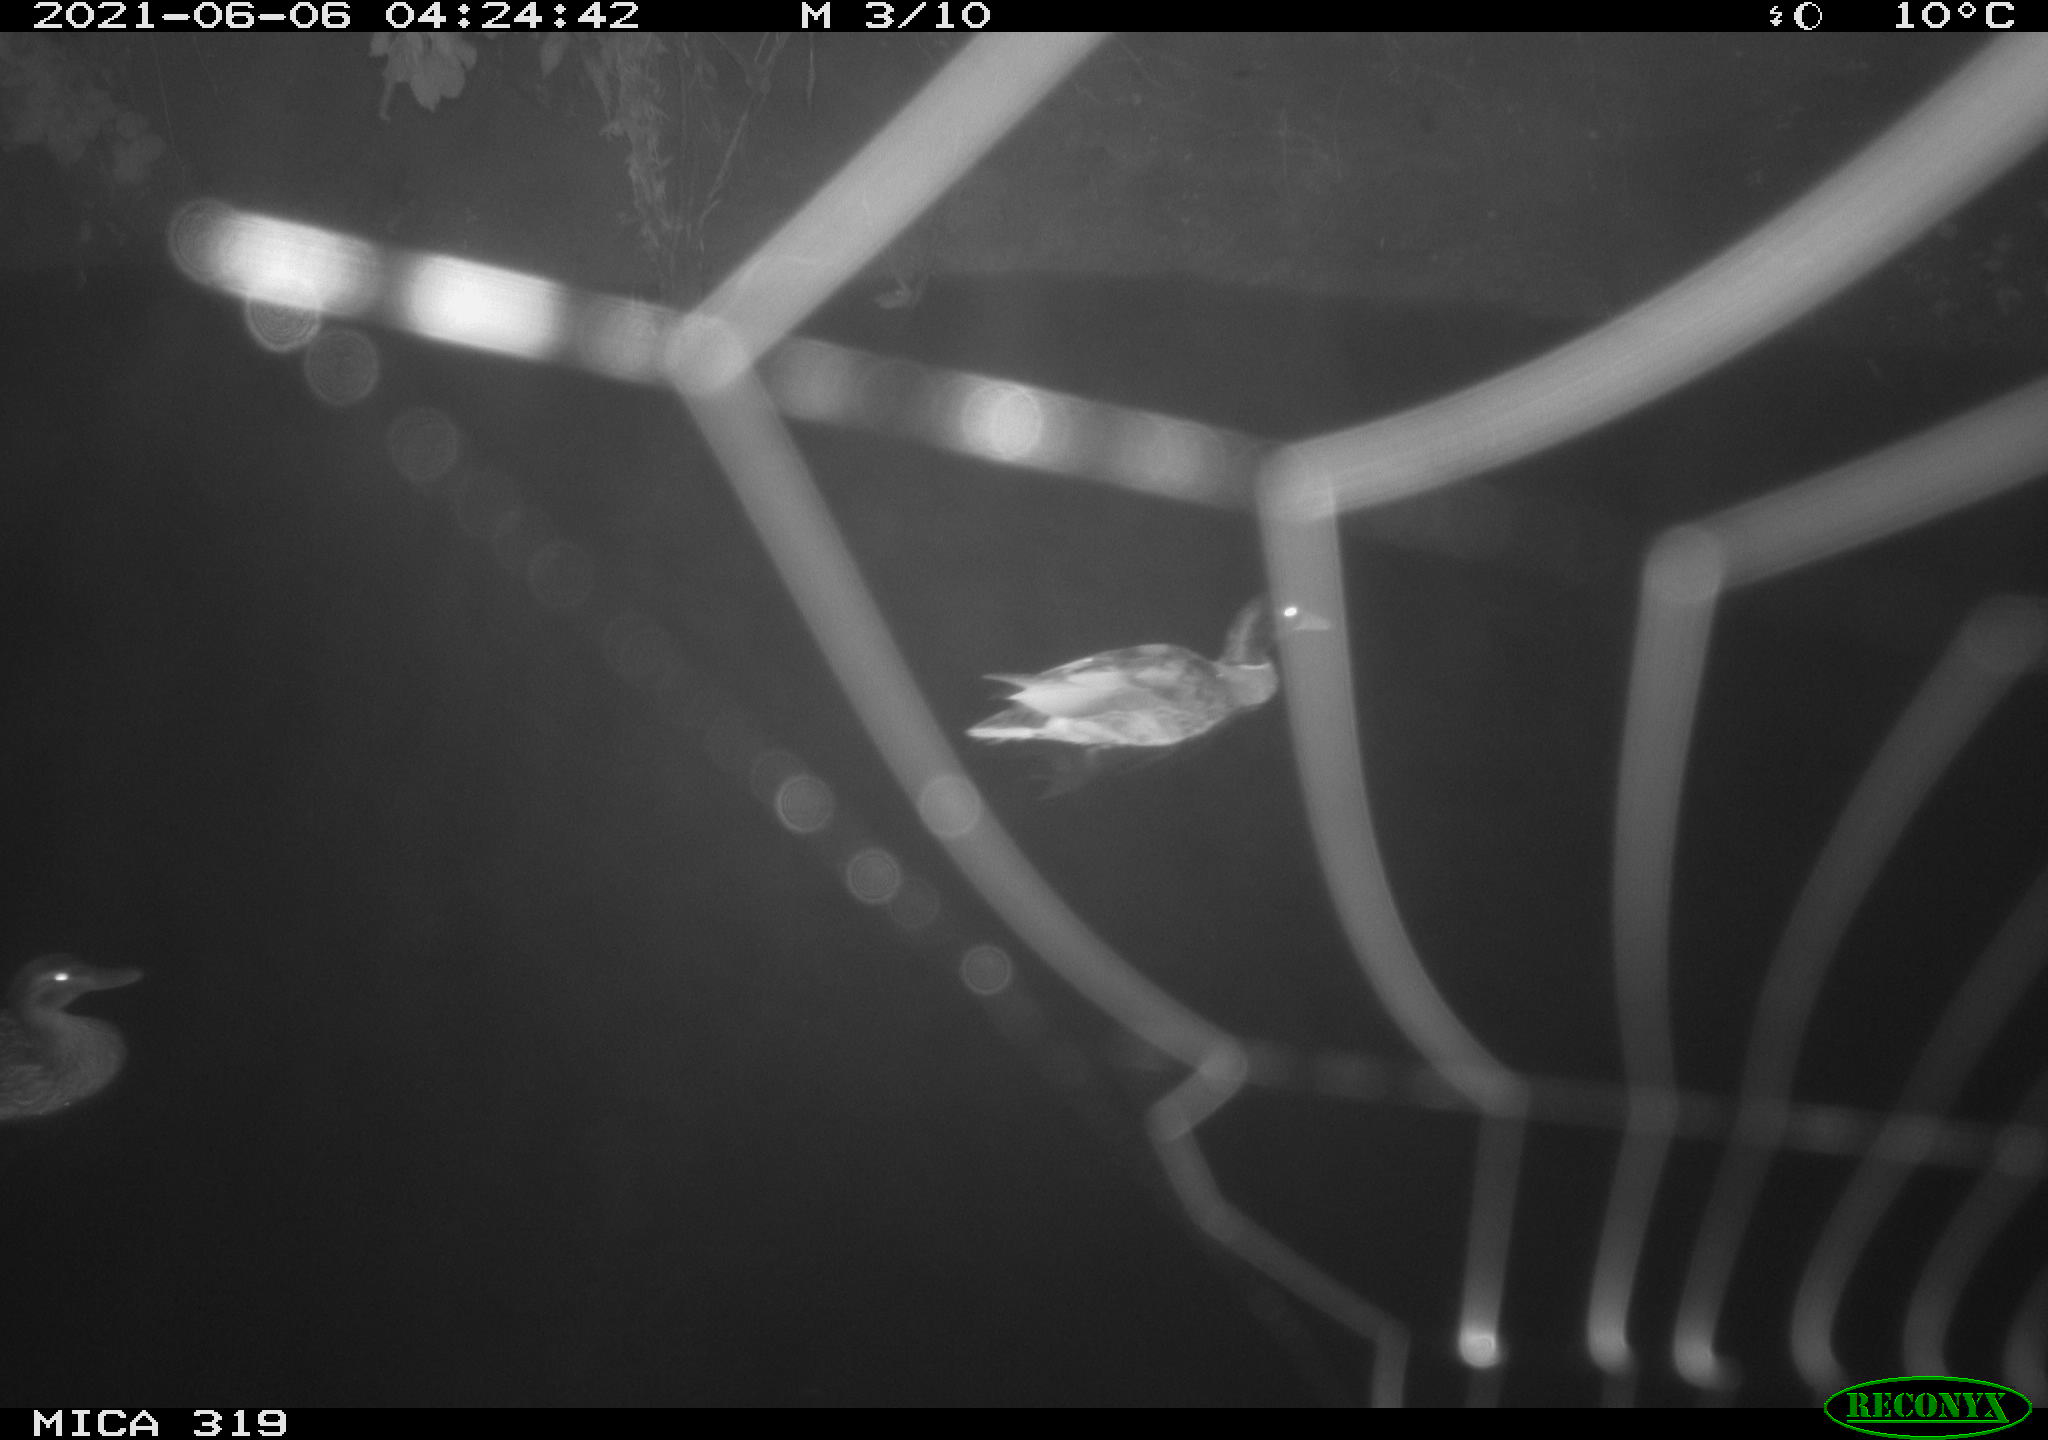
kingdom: Animalia
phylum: Chordata
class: Aves
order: Anseriformes
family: Anatidae
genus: Anas
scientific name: Anas platyrhynchos
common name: Mallard
